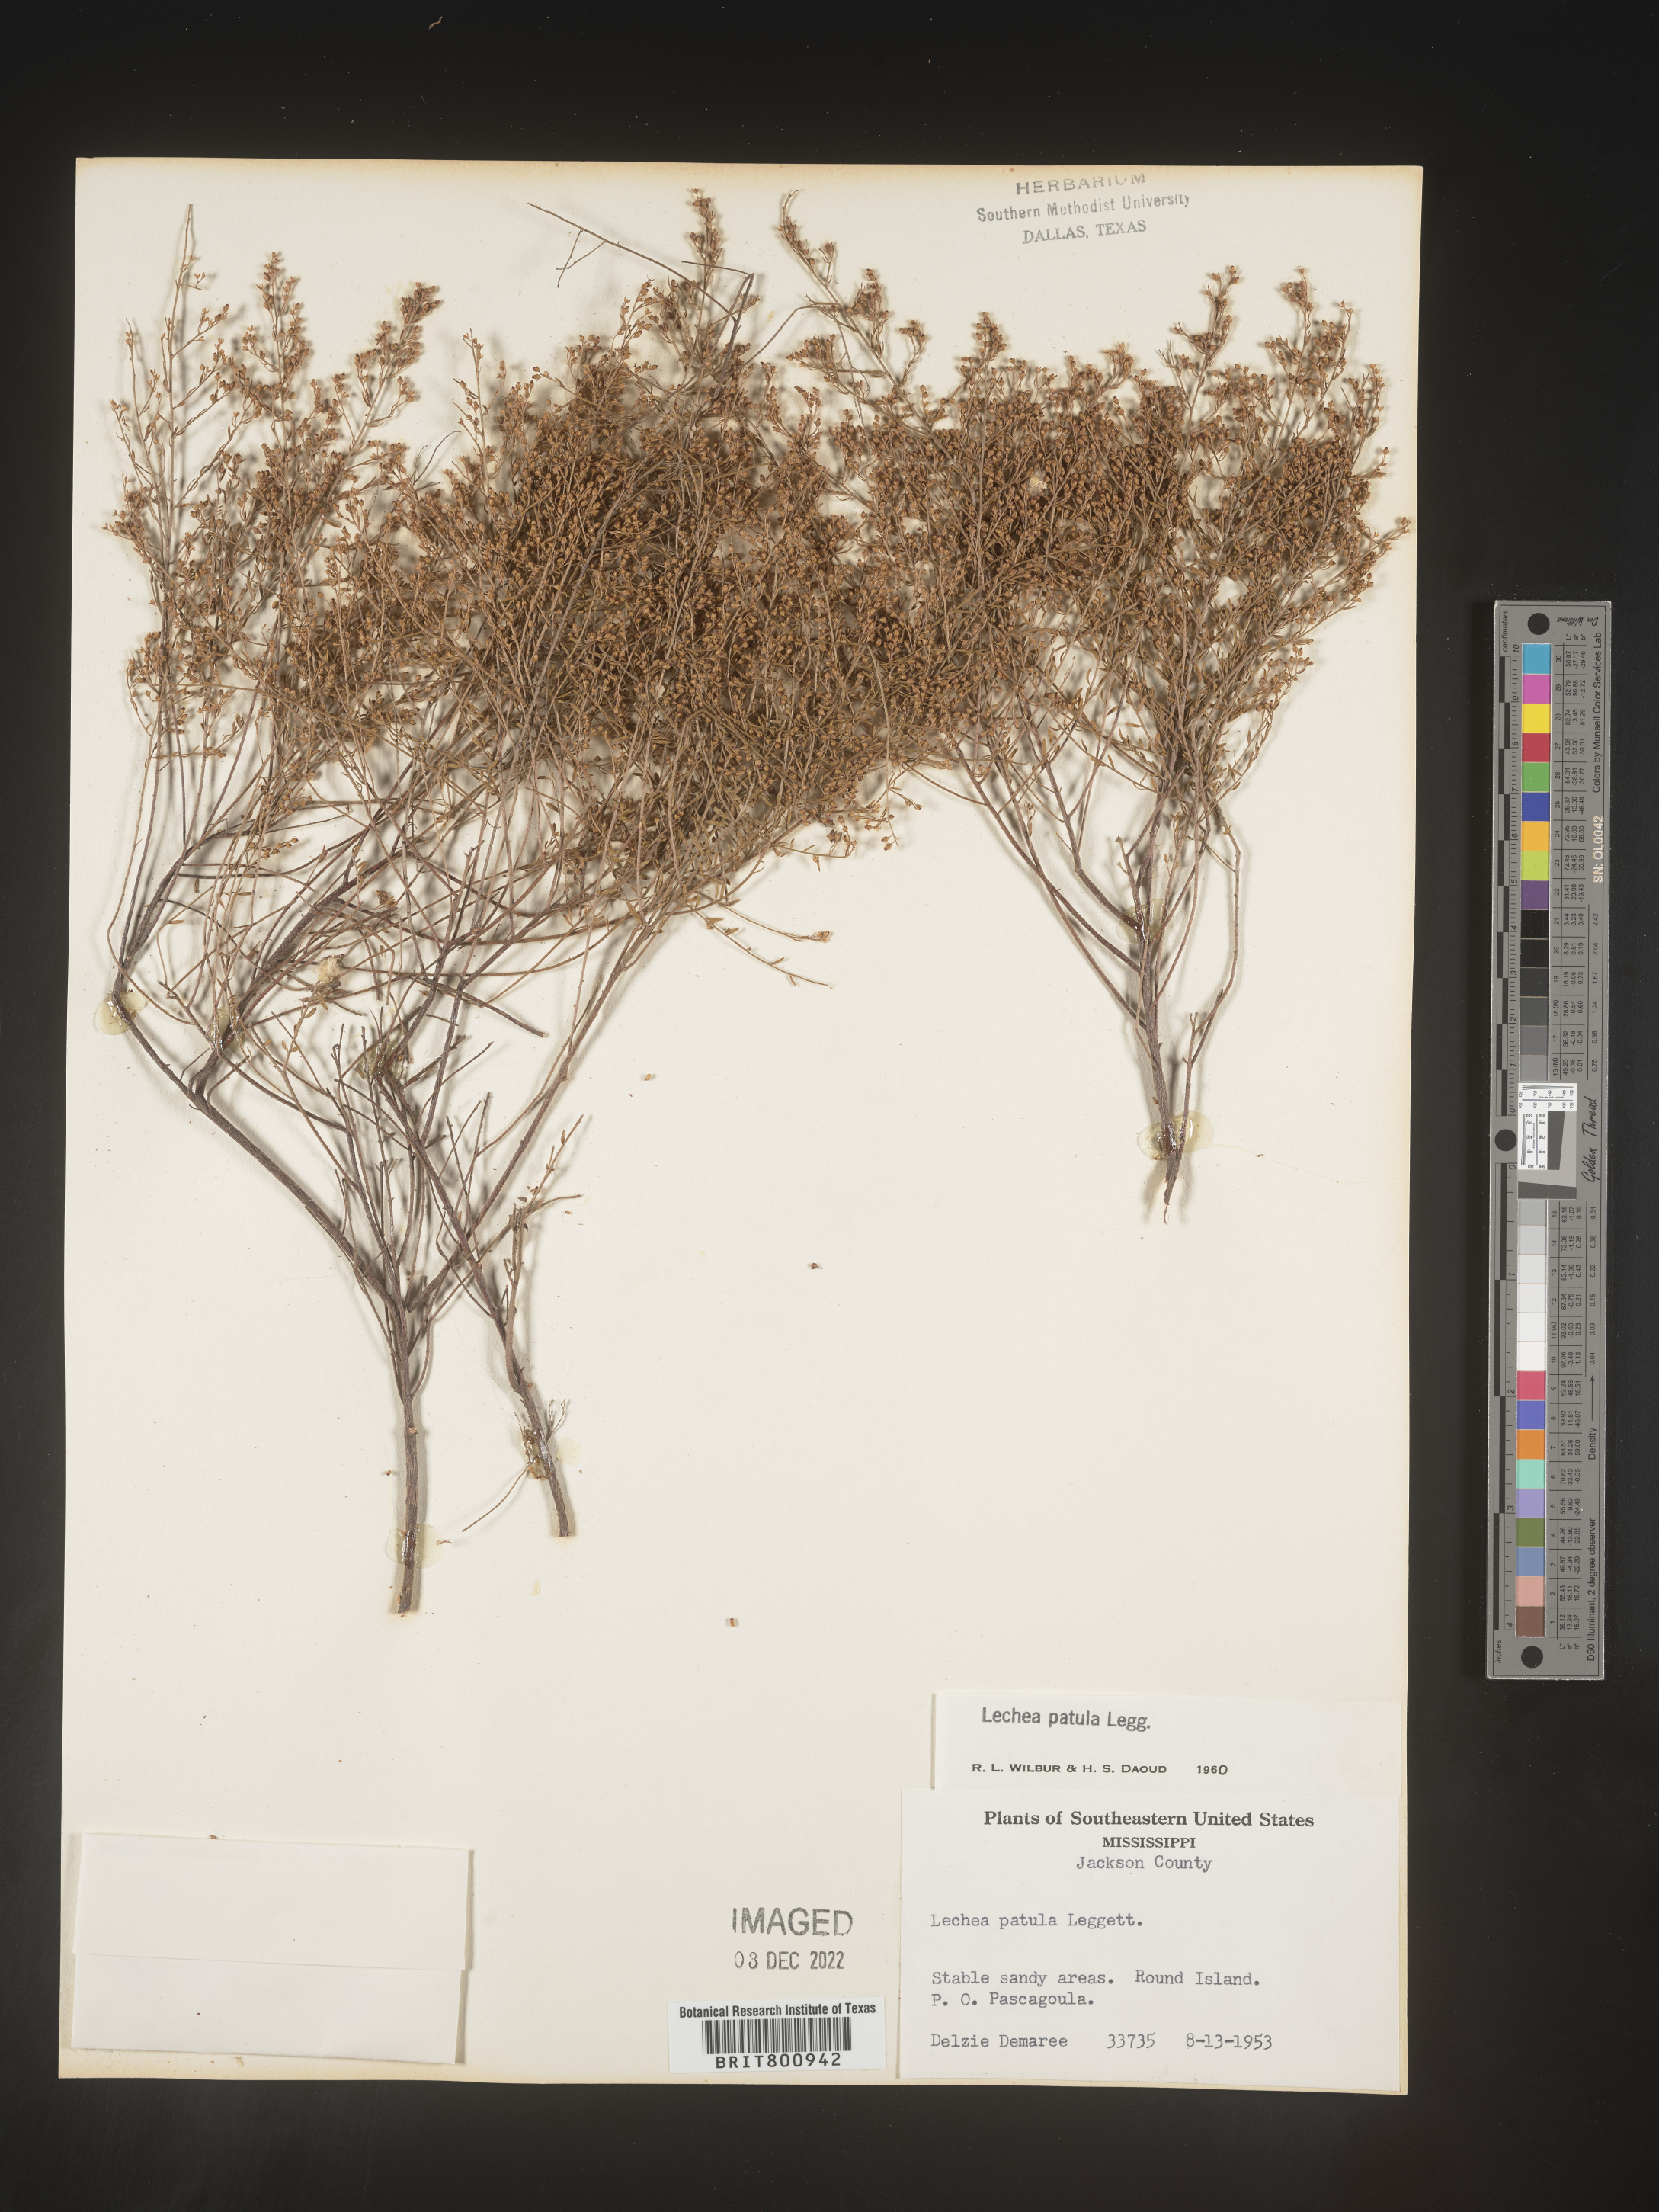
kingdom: Plantae
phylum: Tracheophyta
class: Magnoliopsida
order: Malvales
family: Cistaceae
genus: Lechea
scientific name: Lechea sessiliflora
